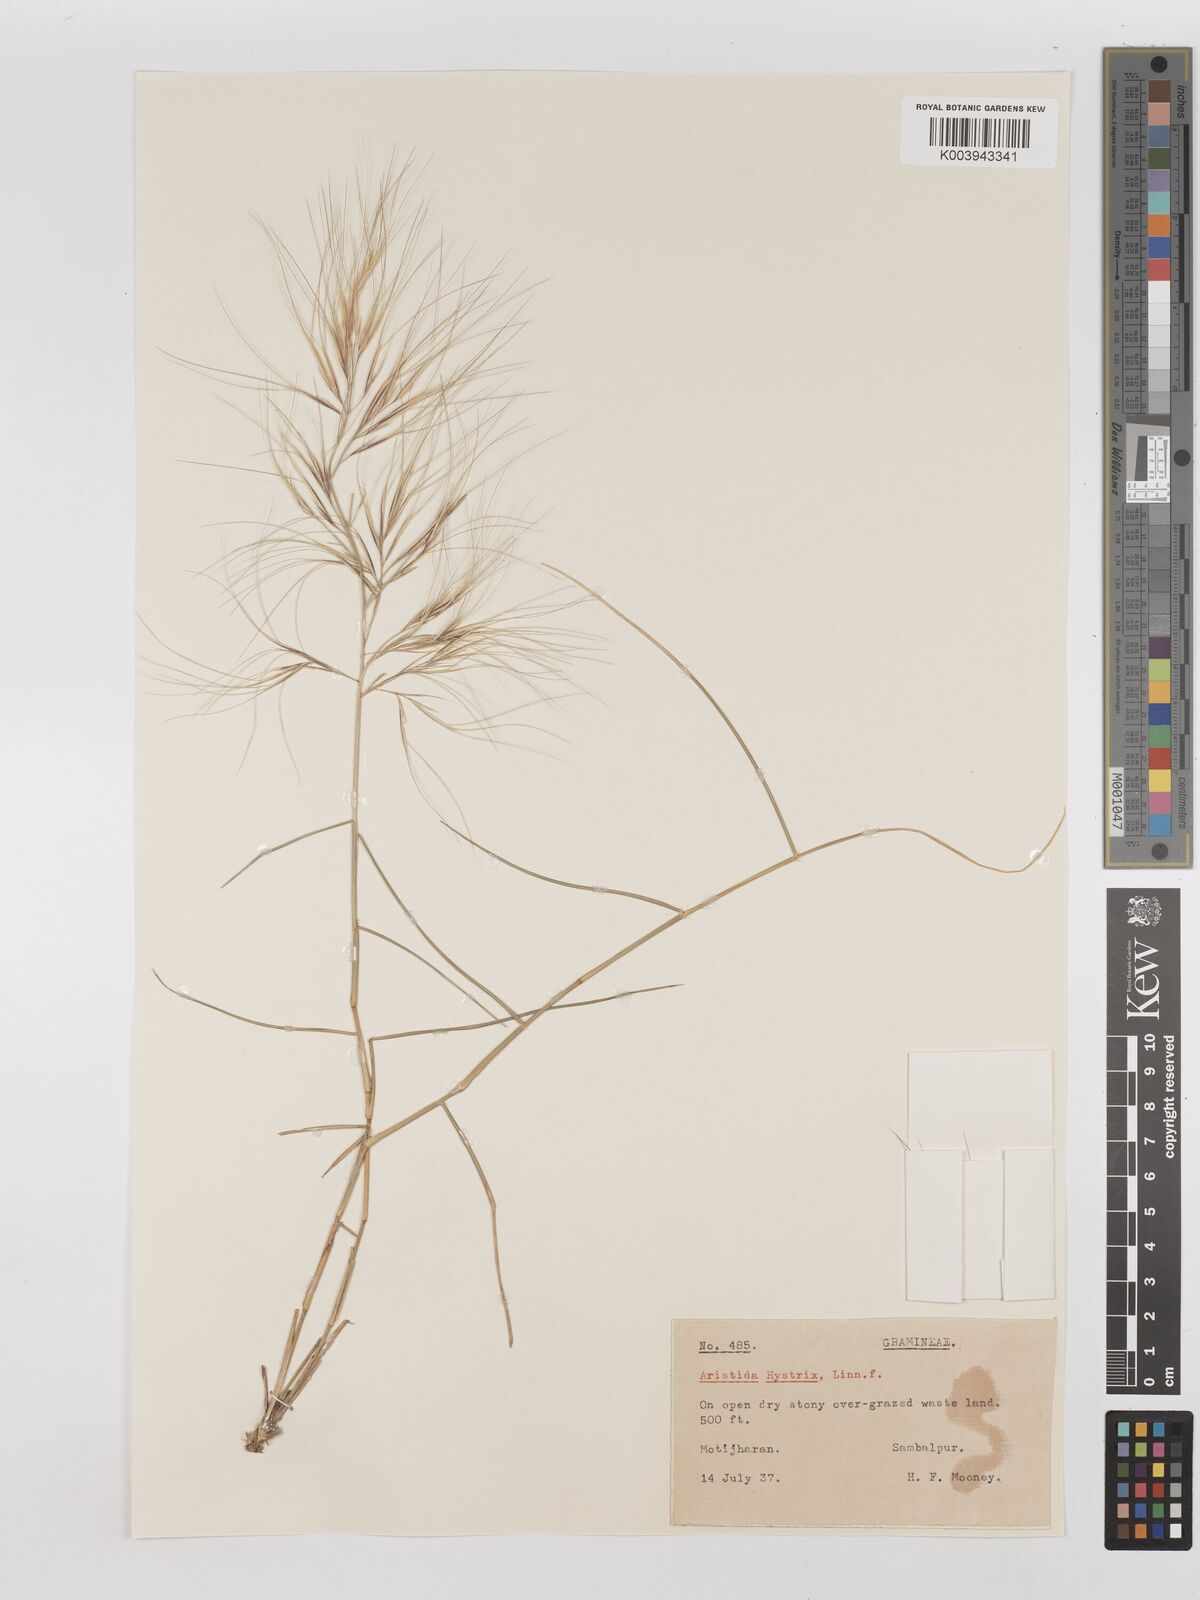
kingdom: Plantae
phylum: Tracheophyta
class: Liliopsida
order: Poales
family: Poaceae
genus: Aristida
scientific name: Aristida hystrix
